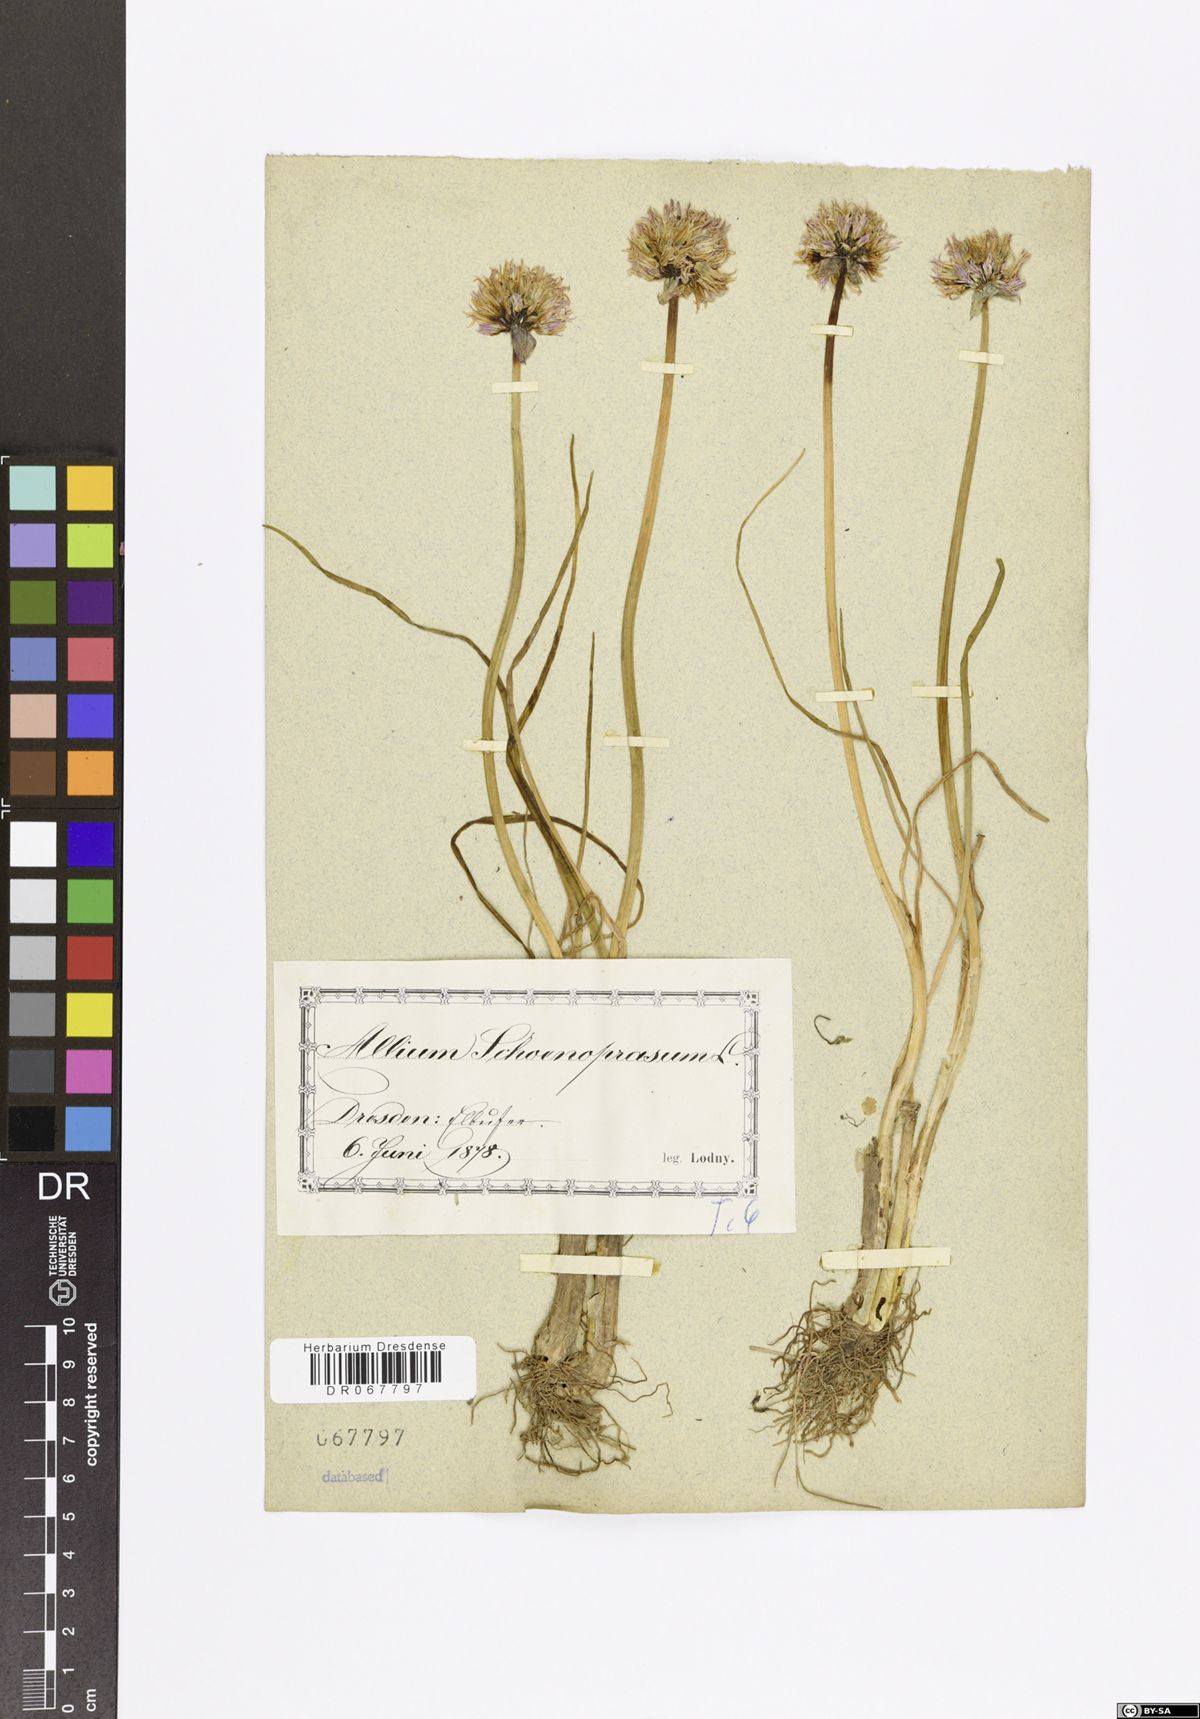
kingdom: Plantae
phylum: Tracheophyta
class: Liliopsida
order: Asparagales
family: Amaryllidaceae
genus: Allium
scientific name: Allium schoenoprasum
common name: Chives
